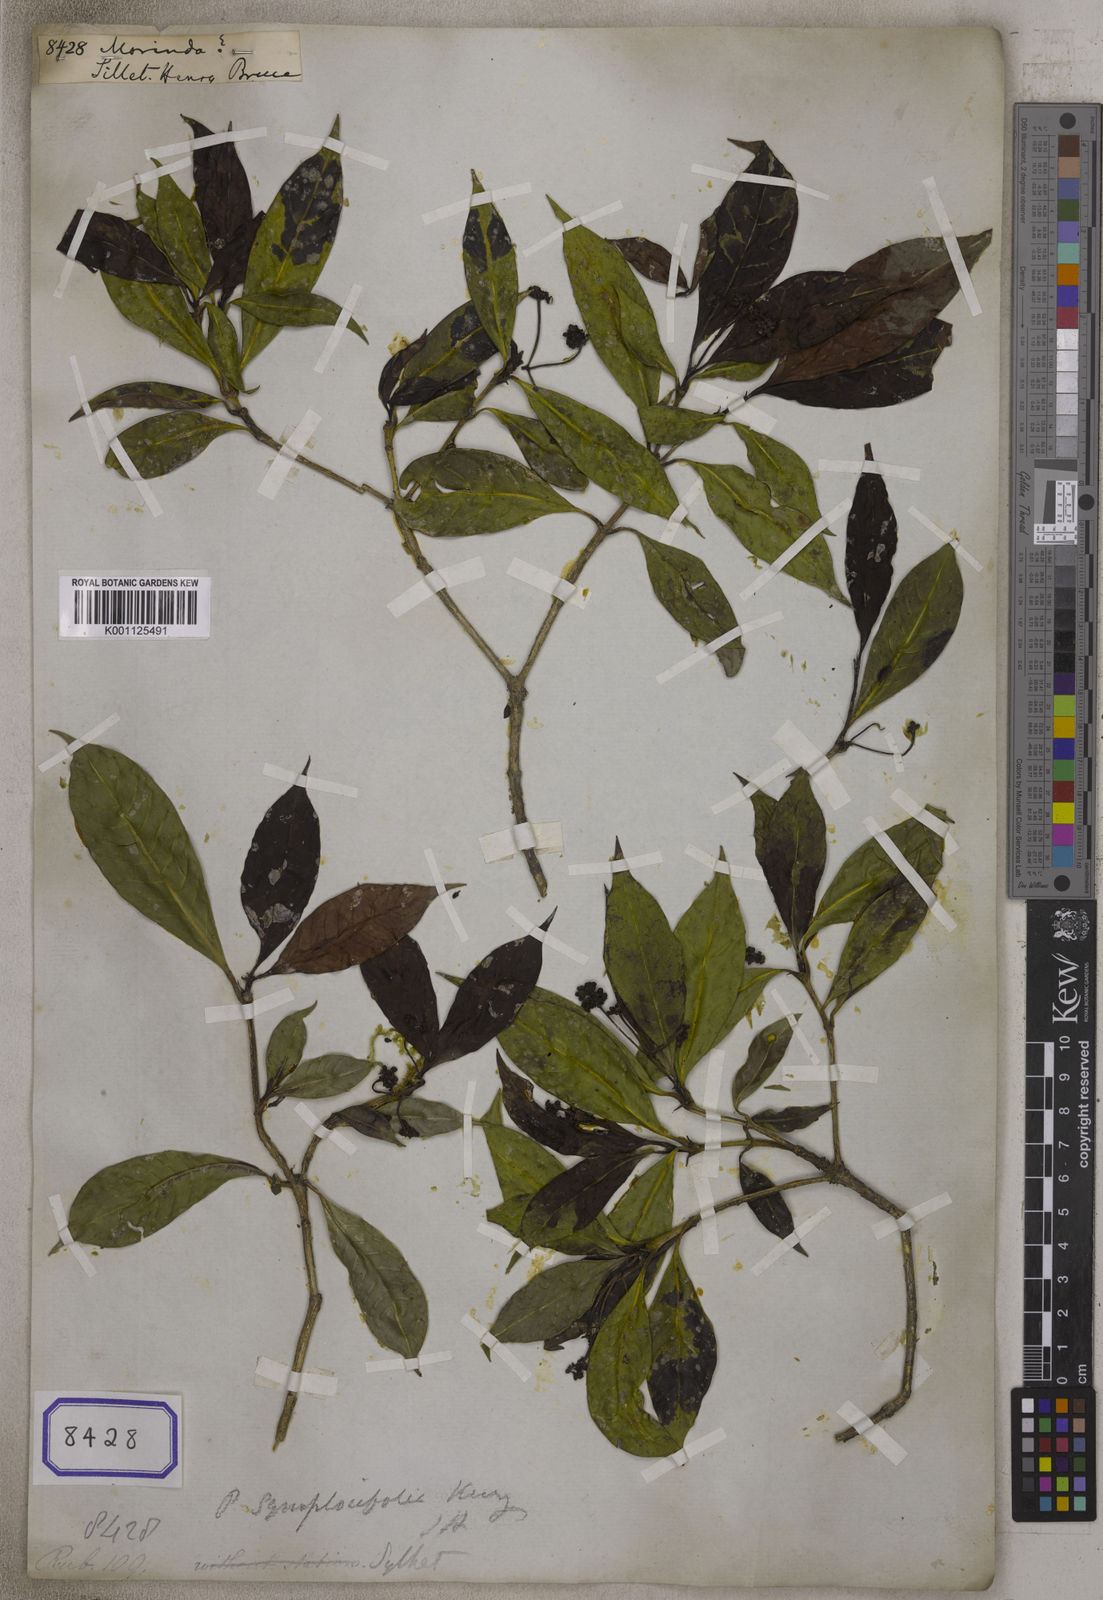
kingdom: Plantae
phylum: Tracheophyta
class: Magnoliopsida
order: Gentianales
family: Rubiaceae
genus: Morinda
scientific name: Morinda
